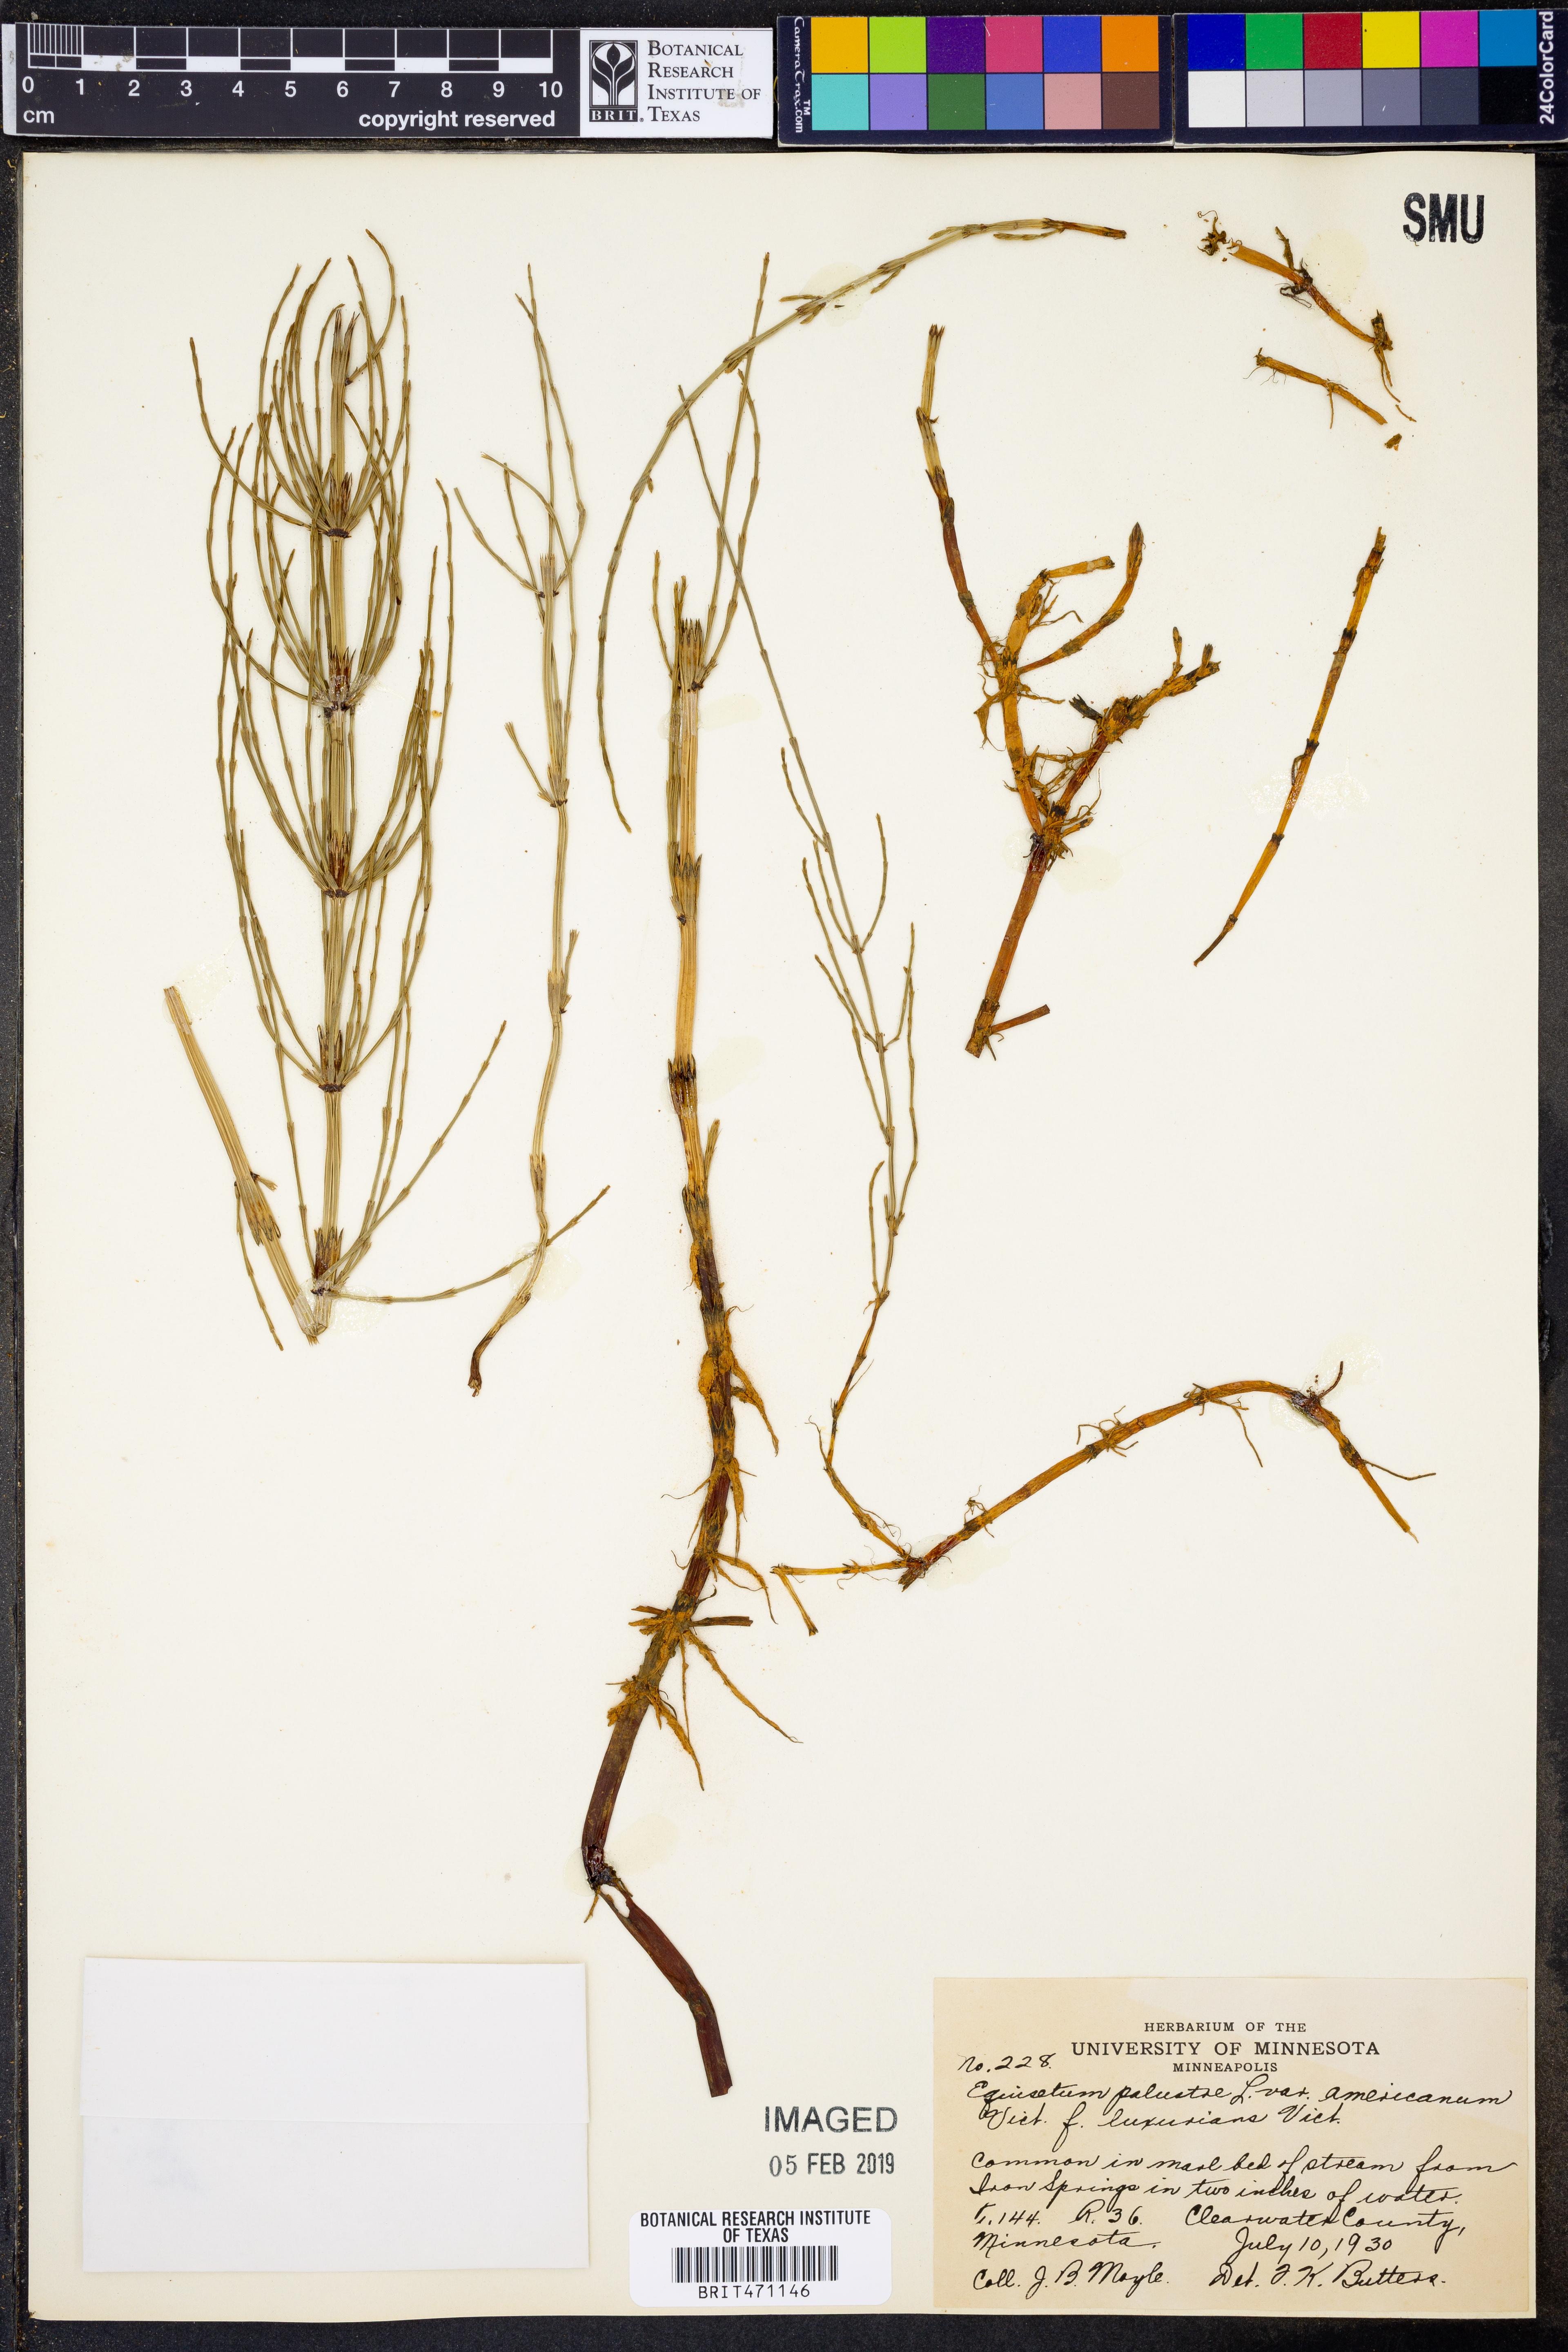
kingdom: Plantae
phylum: Tracheophyta
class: Polypodiopsida
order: Equisetales
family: Equisetaceae
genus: Equisetum
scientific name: Equisetum palustre
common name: Marsh horsetail
